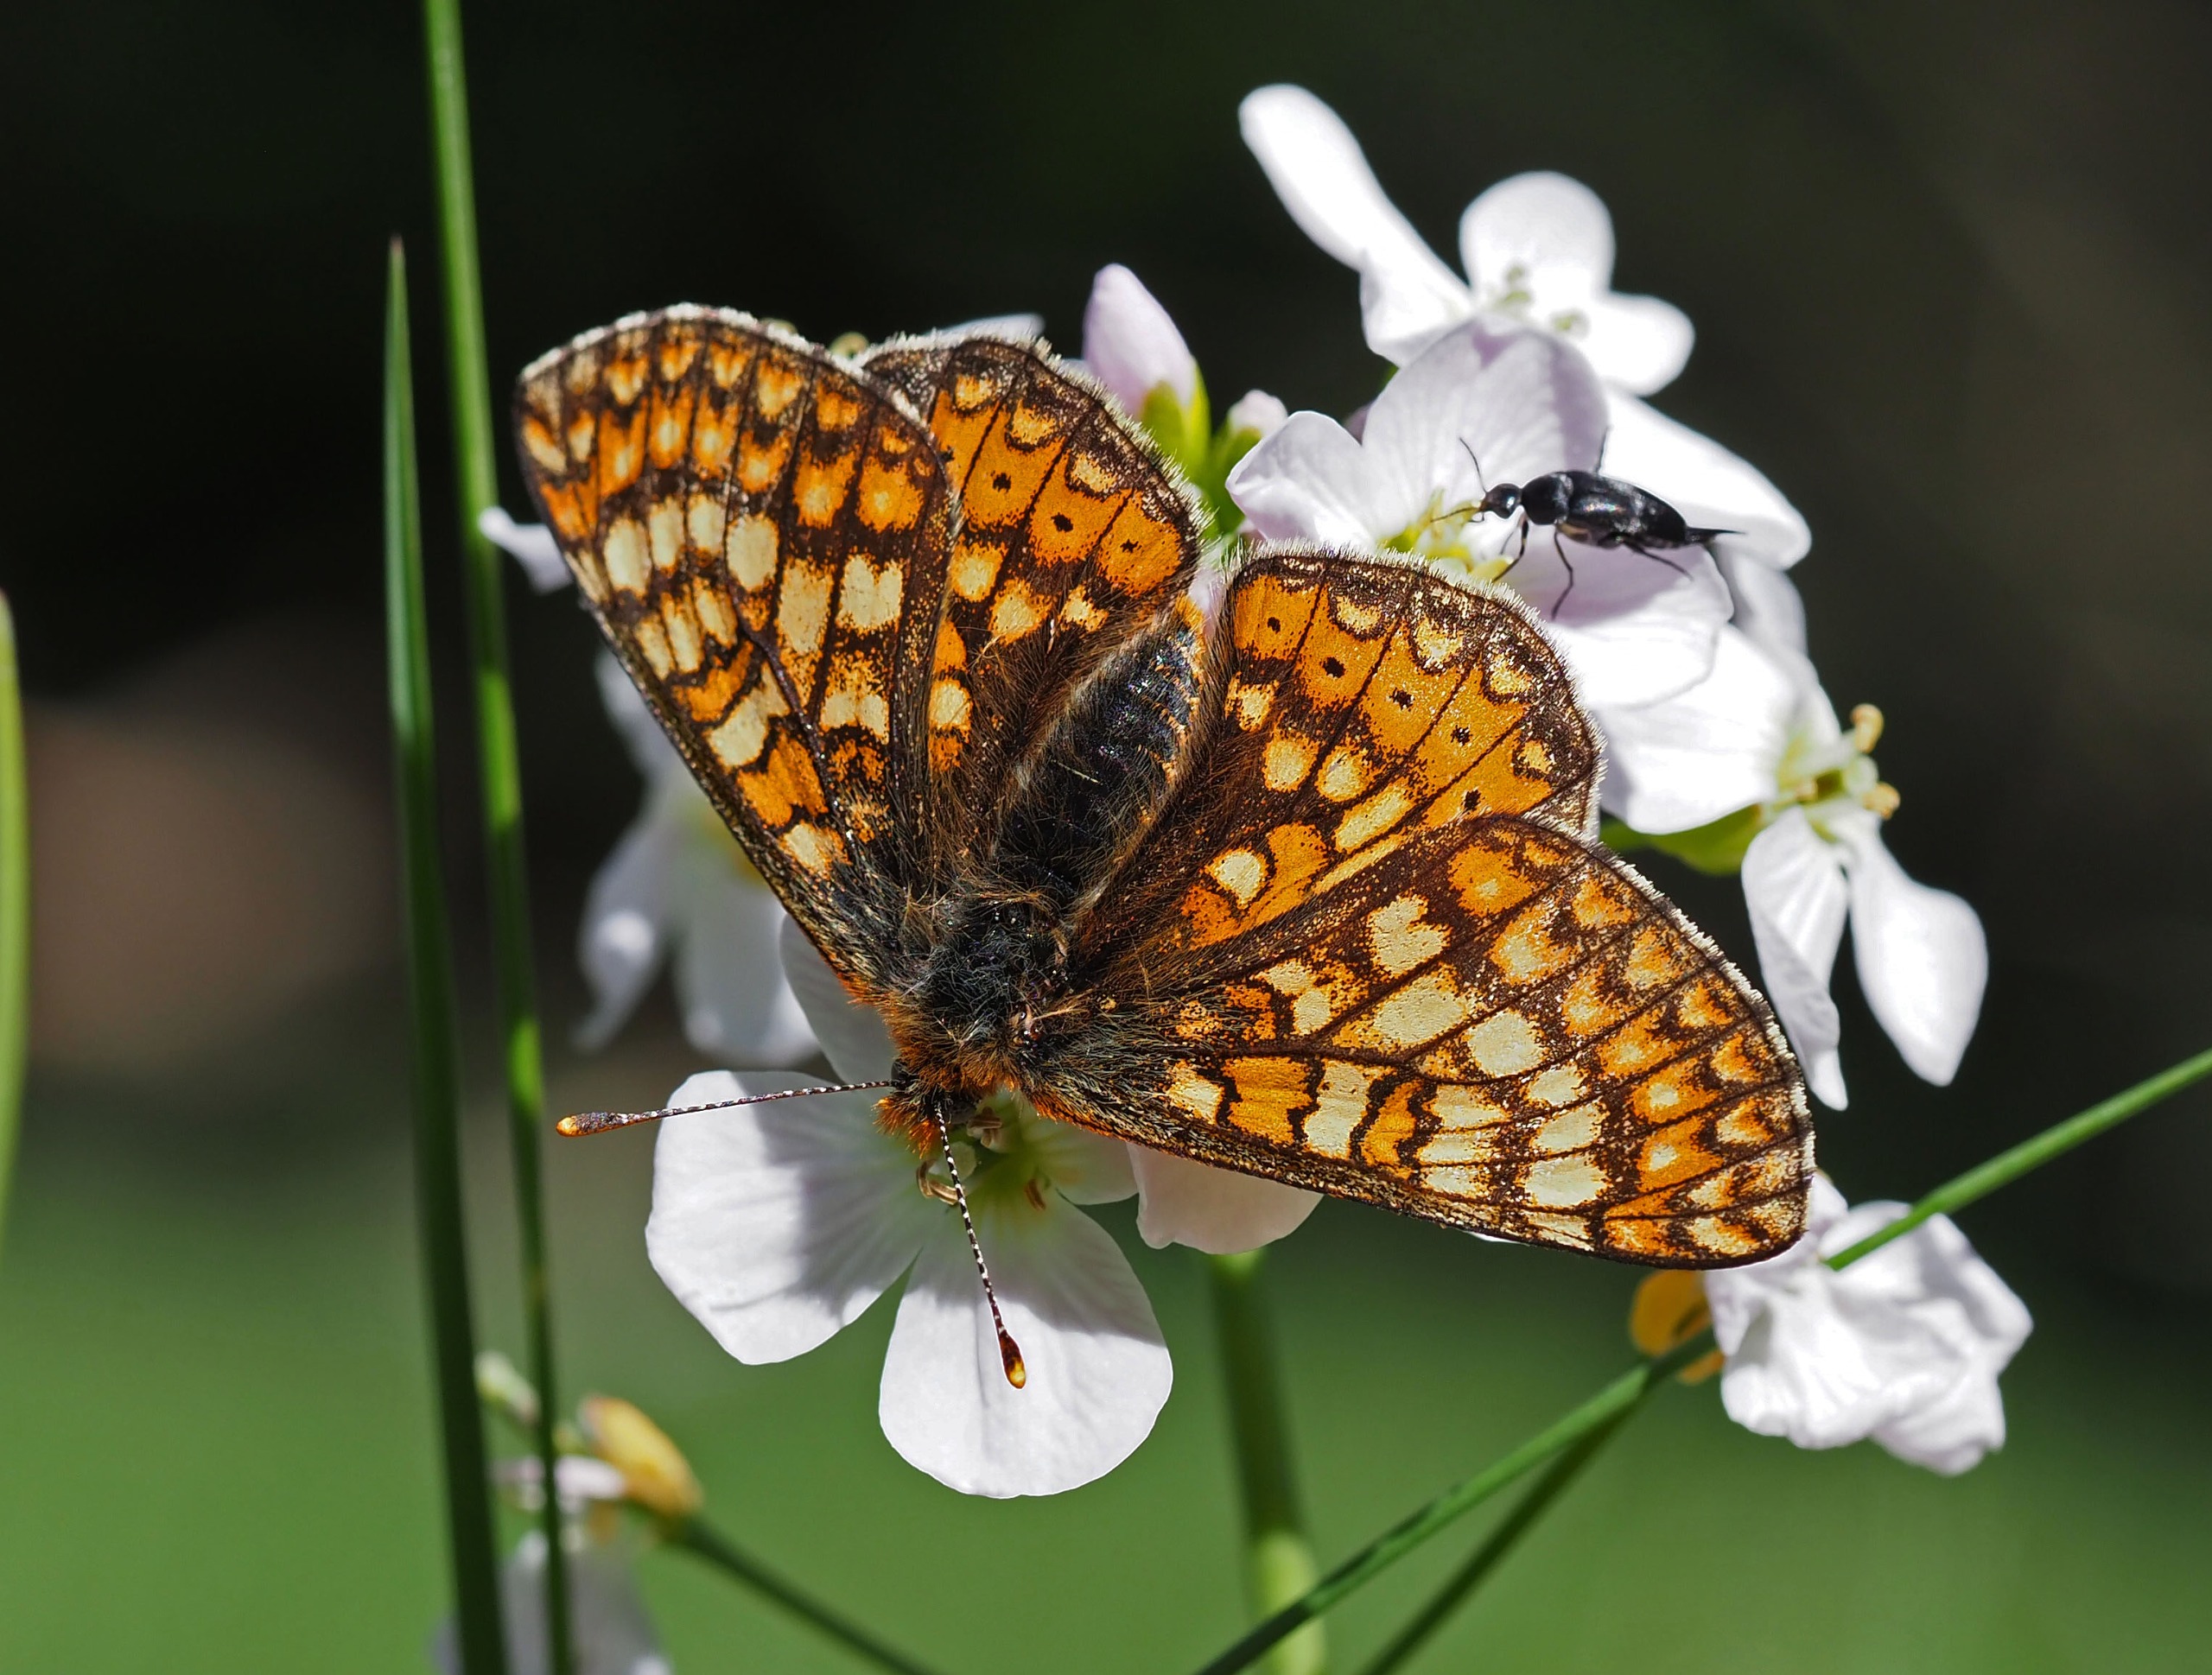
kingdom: Animalia
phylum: Arthropoda
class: Insecta
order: Lepidoptera
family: Nymphalidae
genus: Euphydryas
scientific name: Euphydryas aurinia
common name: Hedepletvinge
